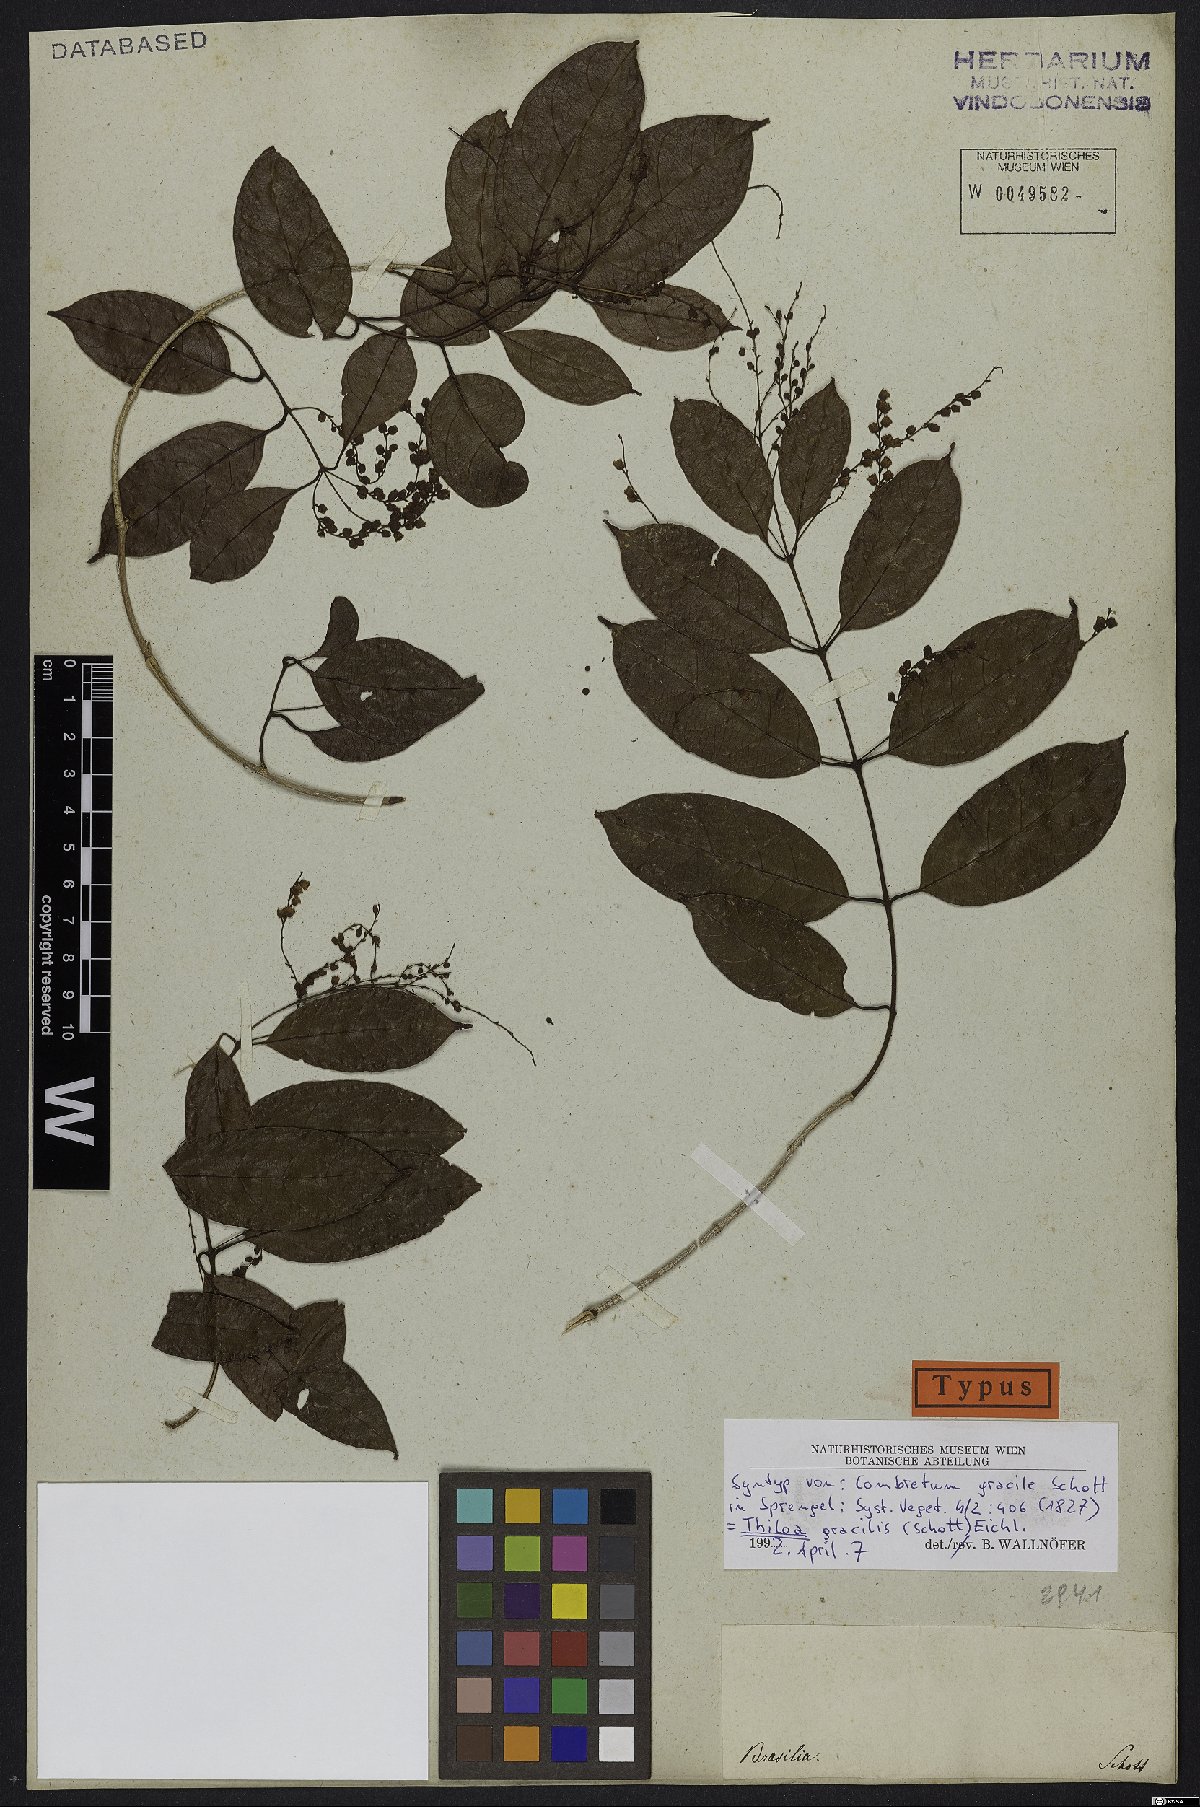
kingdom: Plantae
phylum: Tracheophyta
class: Magnoliopsida
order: Myrtales
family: Combretaceae
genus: Combretum
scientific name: Combretum gracile
